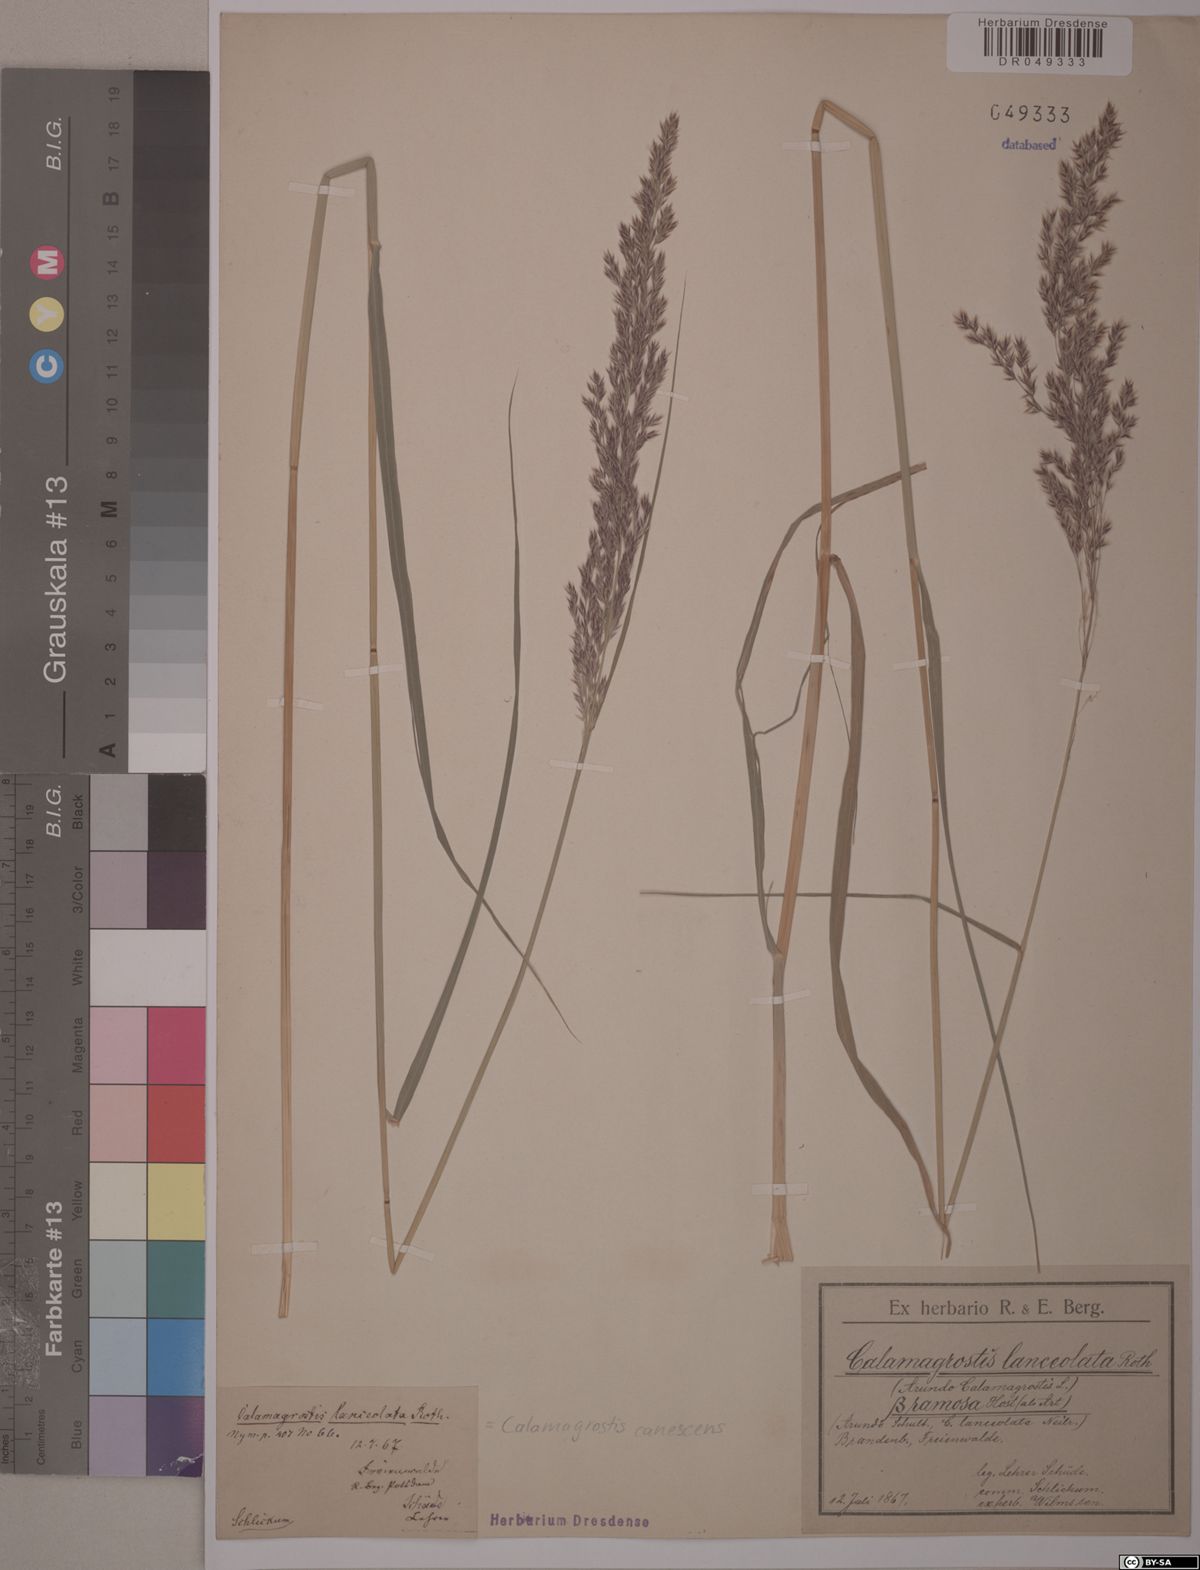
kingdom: Plantae
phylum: Tracheophyta
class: Liliopsida
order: Poales
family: Poaceae
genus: Calamagrostis
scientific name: Calamagrostis canescens
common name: Purple small-reed
